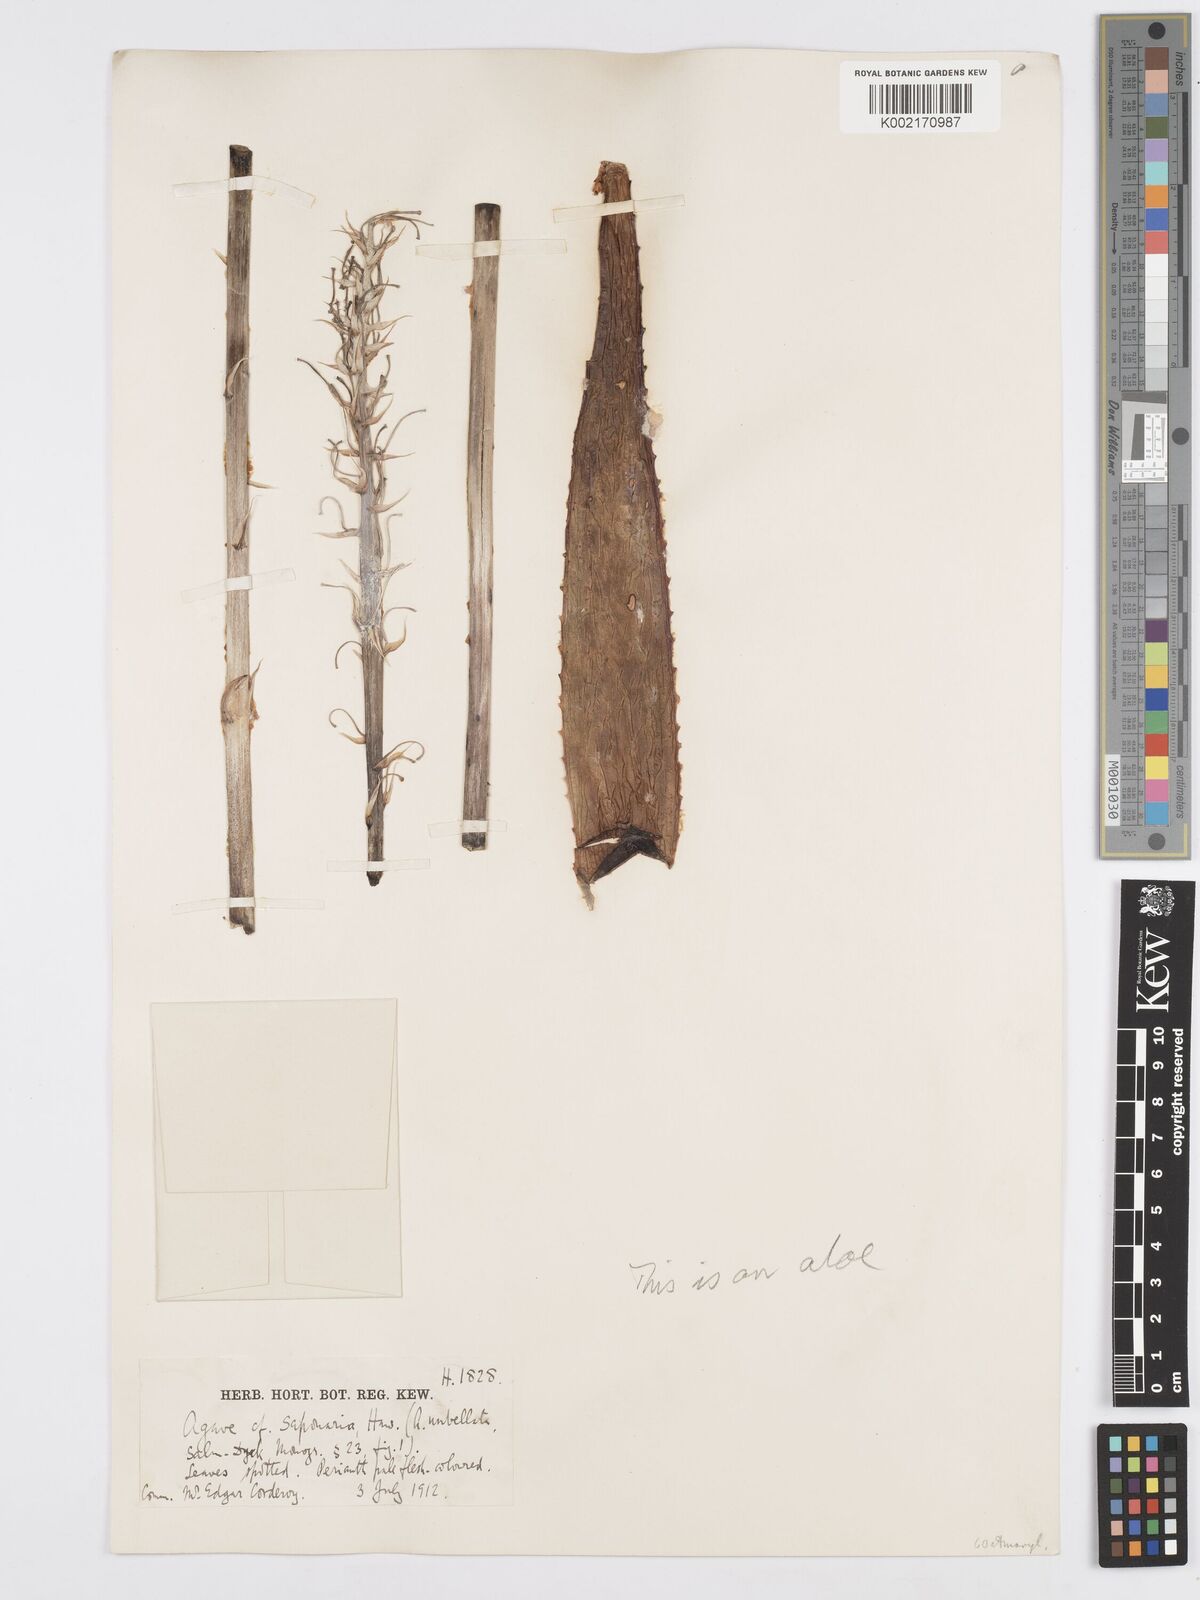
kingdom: Plantae
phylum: Tracheophyta
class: Liliopsida
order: Asparagales
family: Asparagaceae
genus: Agave
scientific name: Agave scabra
